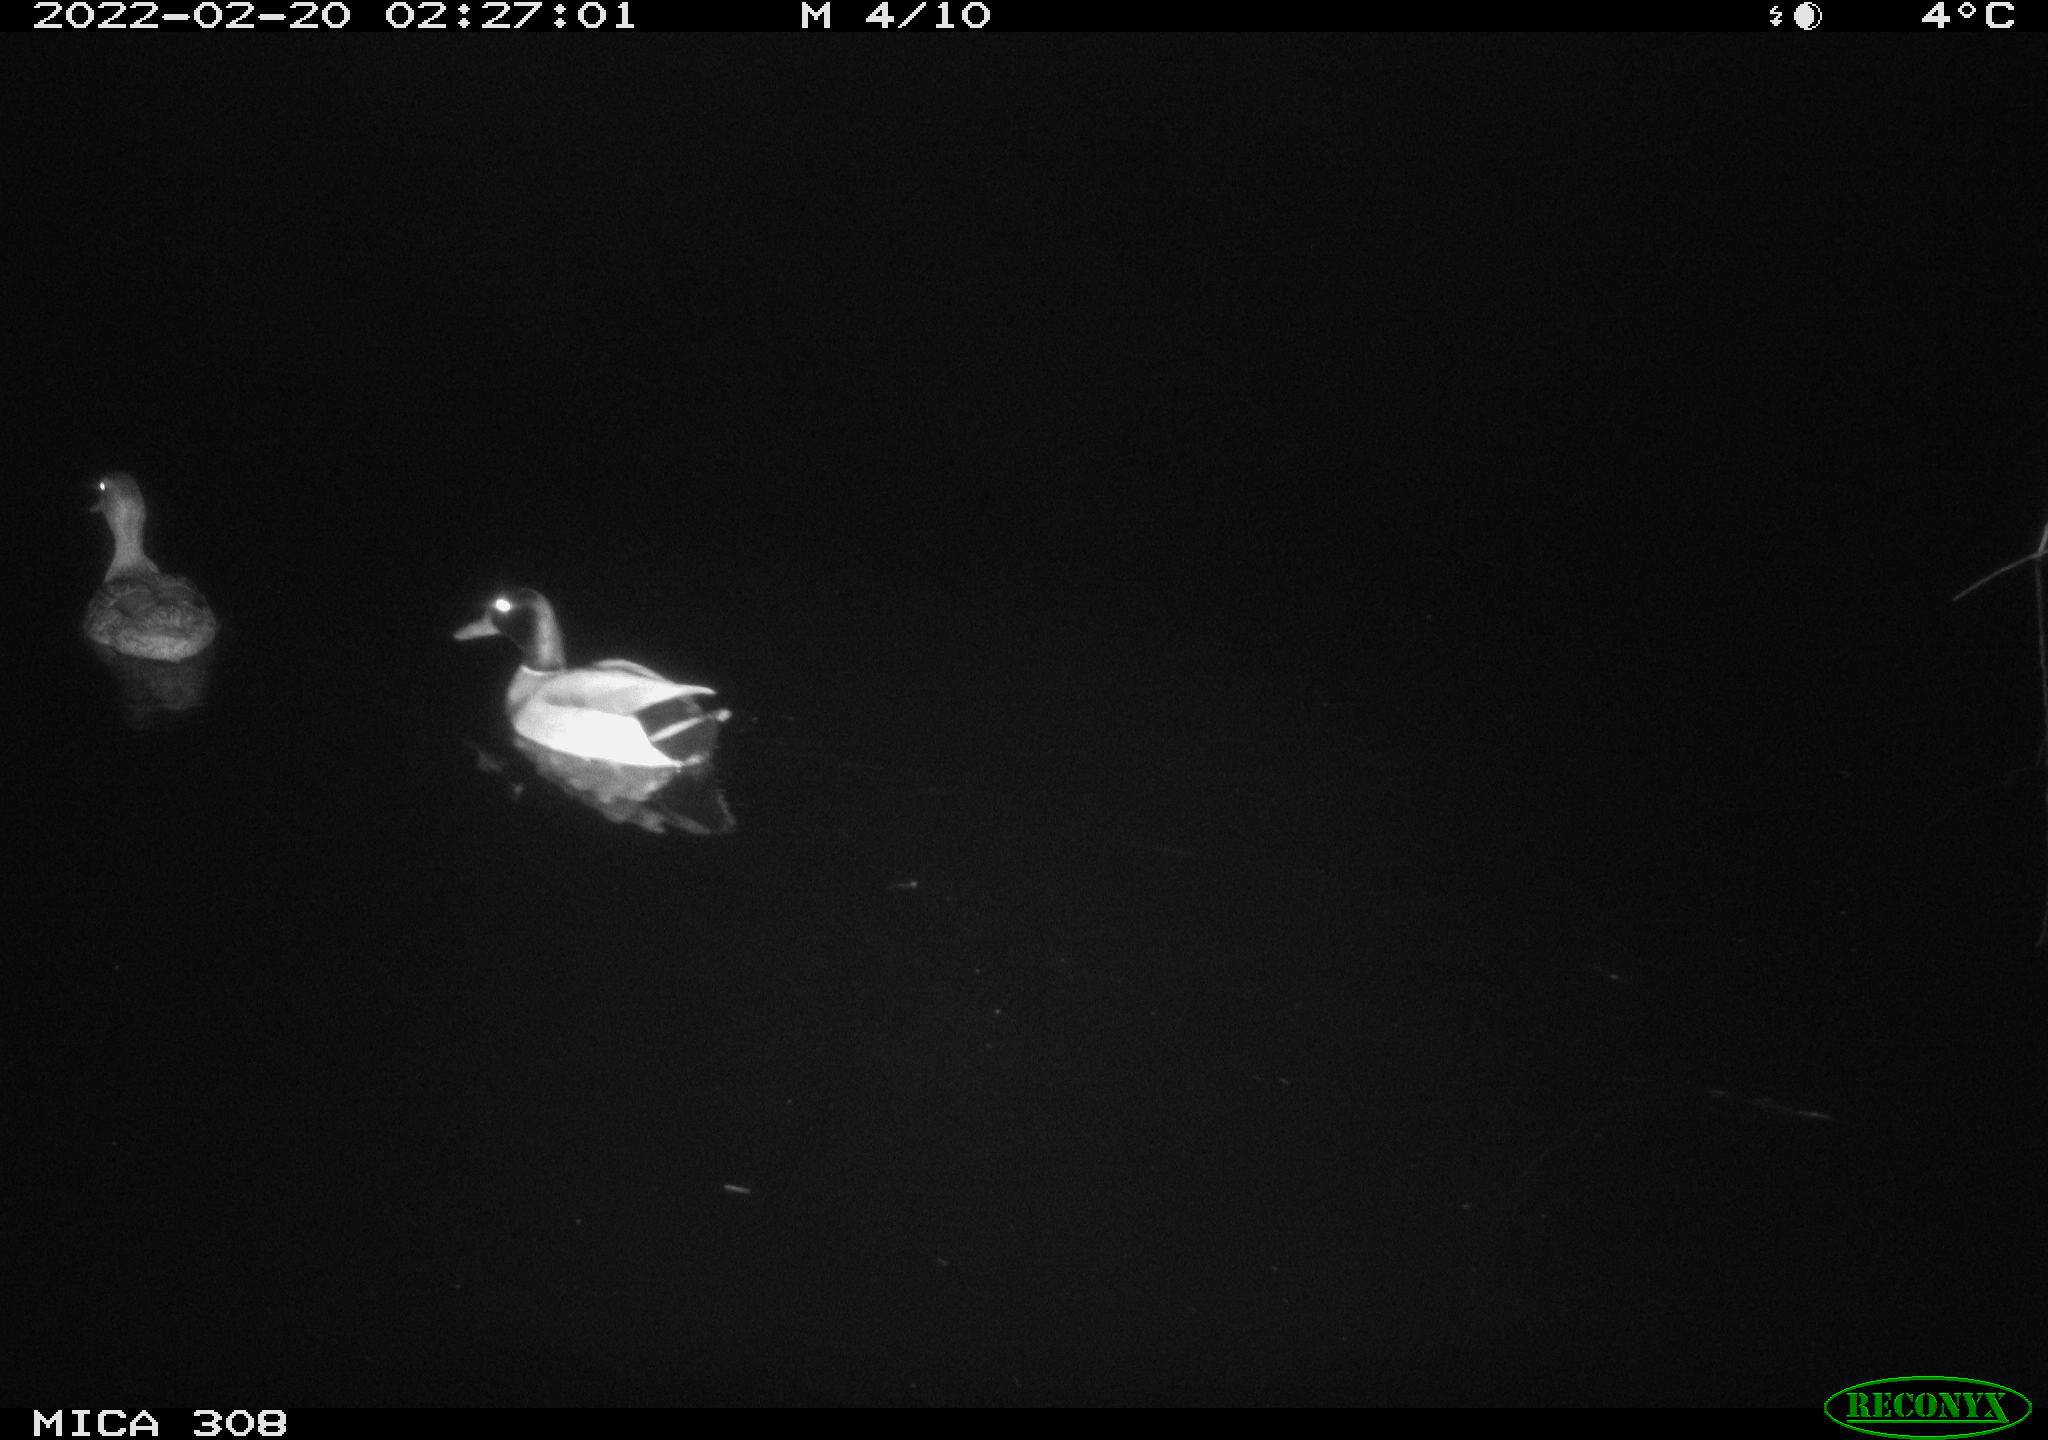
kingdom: Animalia
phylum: Chordata
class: Aves
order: Anseriformes
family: Anatidae
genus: Anas
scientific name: Anas platyrhynchos
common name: Mallard
